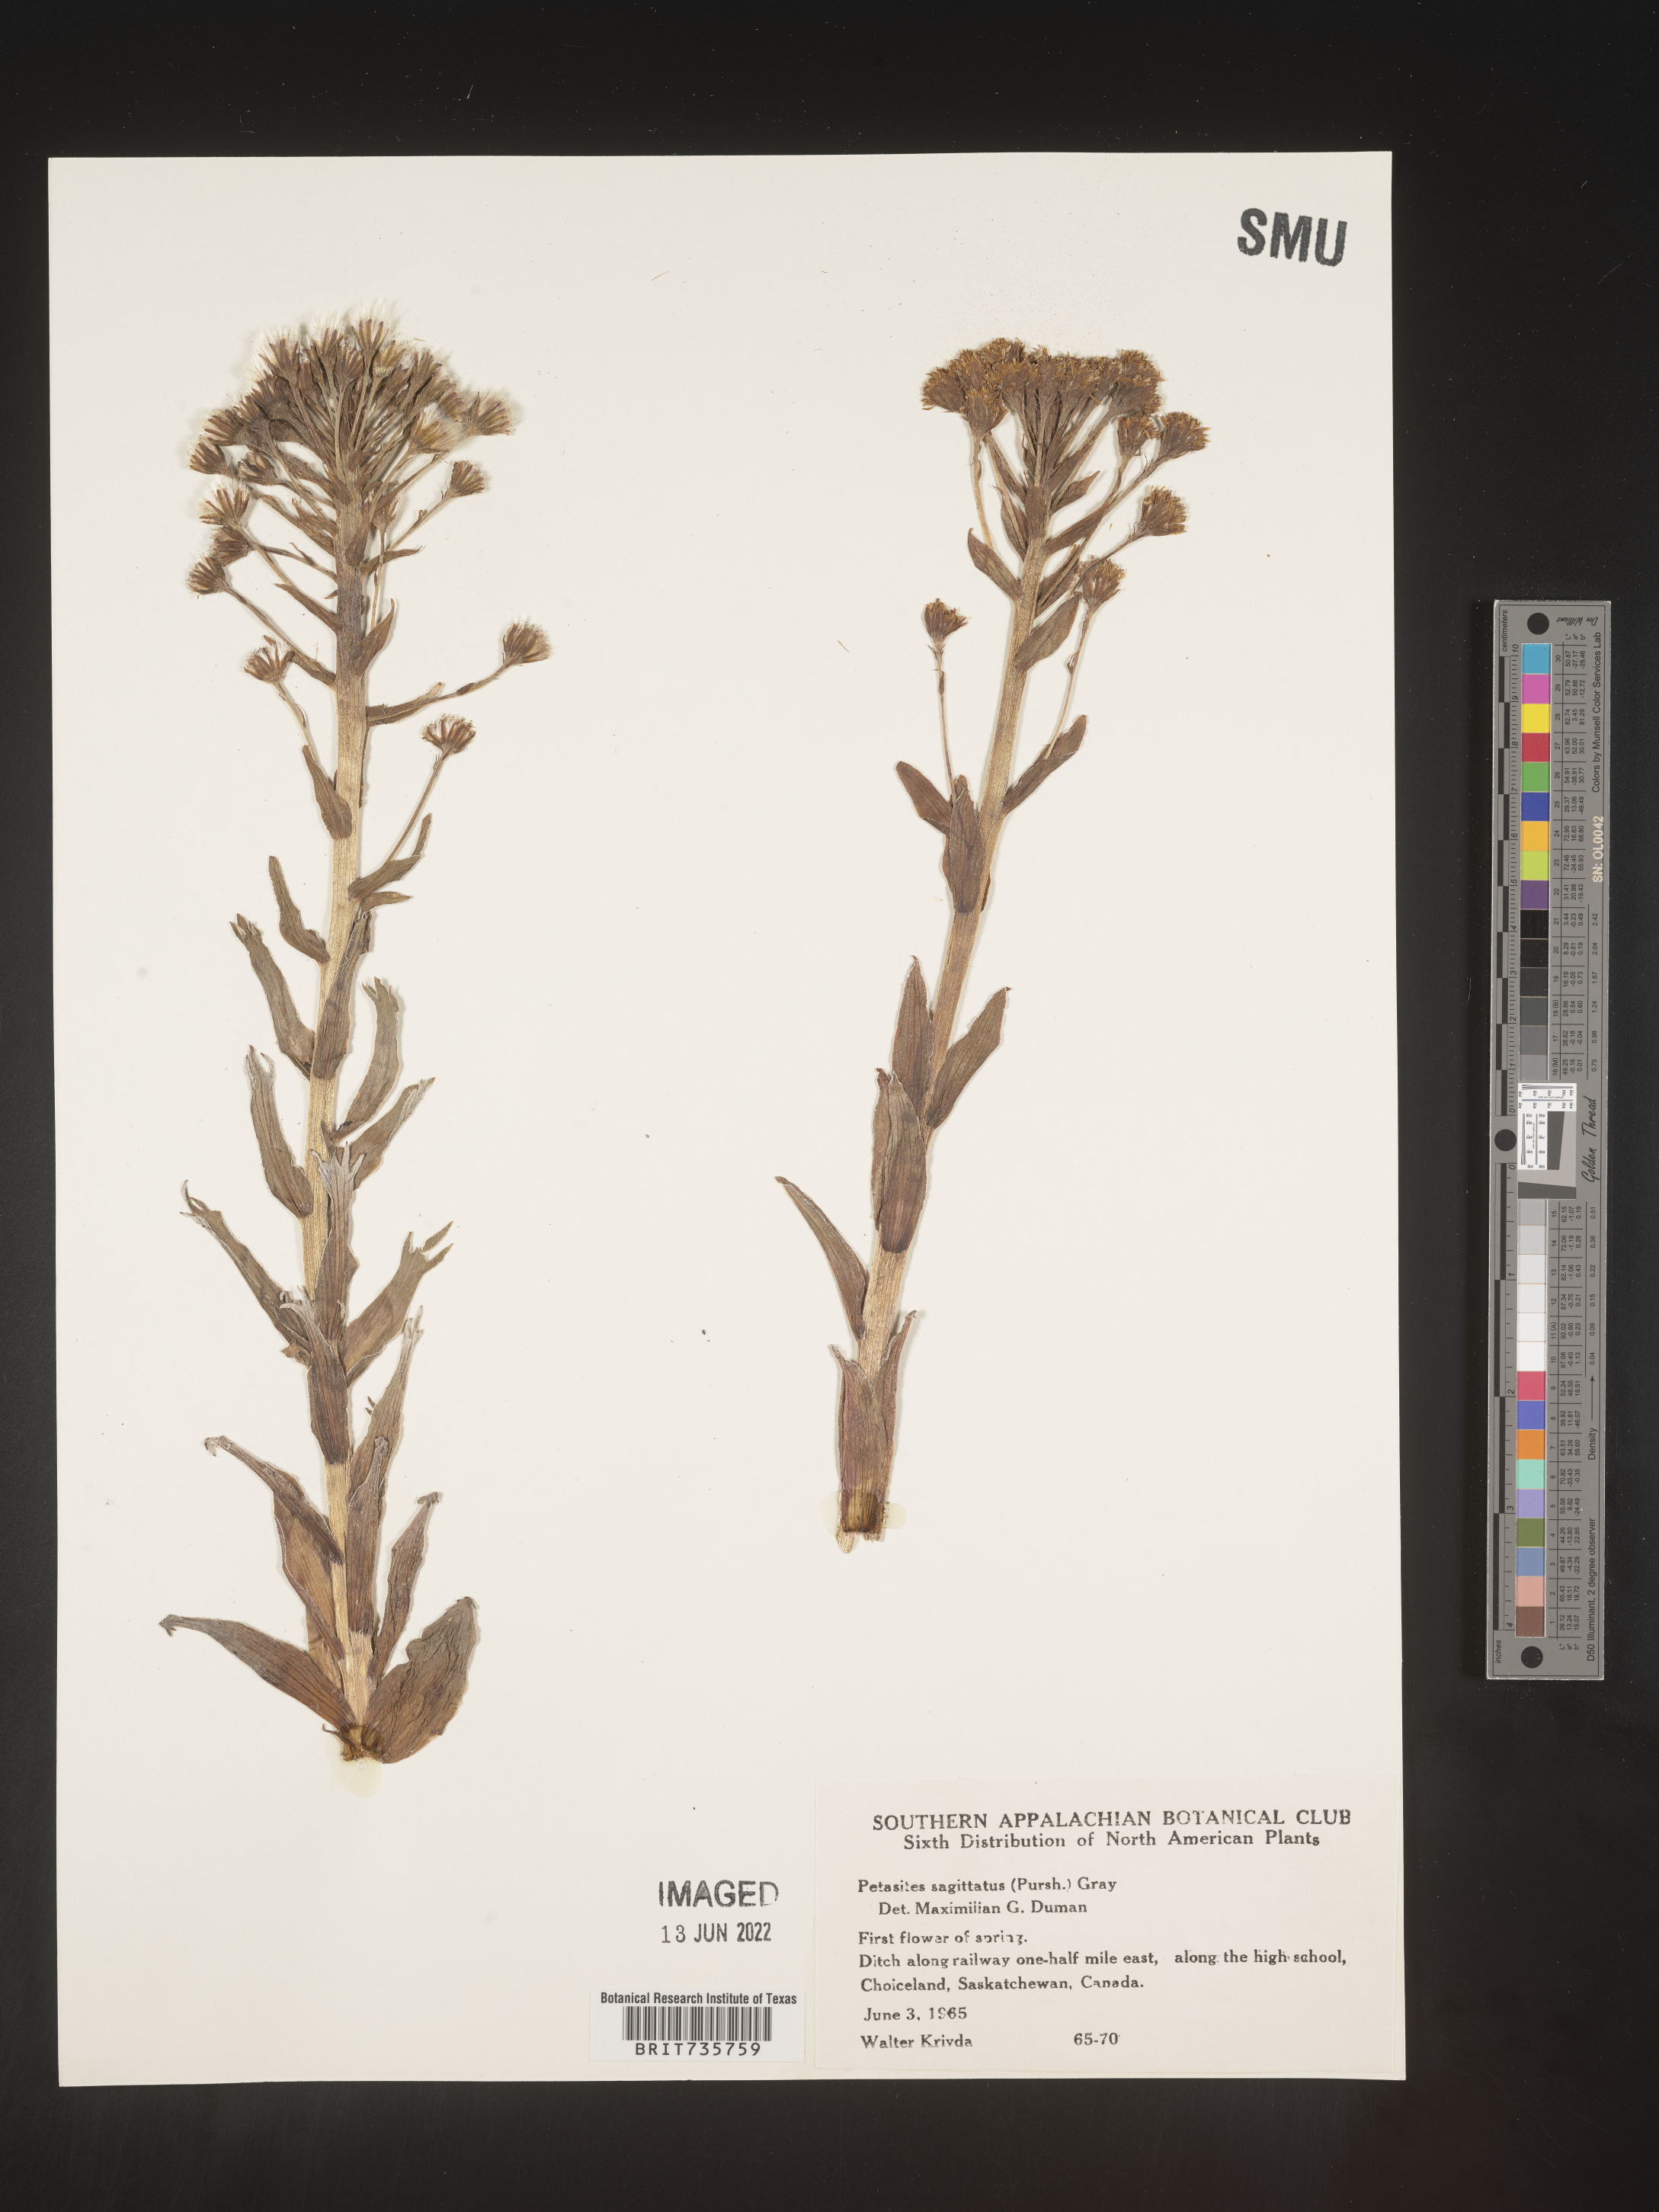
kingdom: Plantae
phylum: Tracheophyta
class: Magnoliopsida
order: Asterales
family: Asteraceae
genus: Petasites
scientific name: Petasites frigidus
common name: Arctic butterbur
